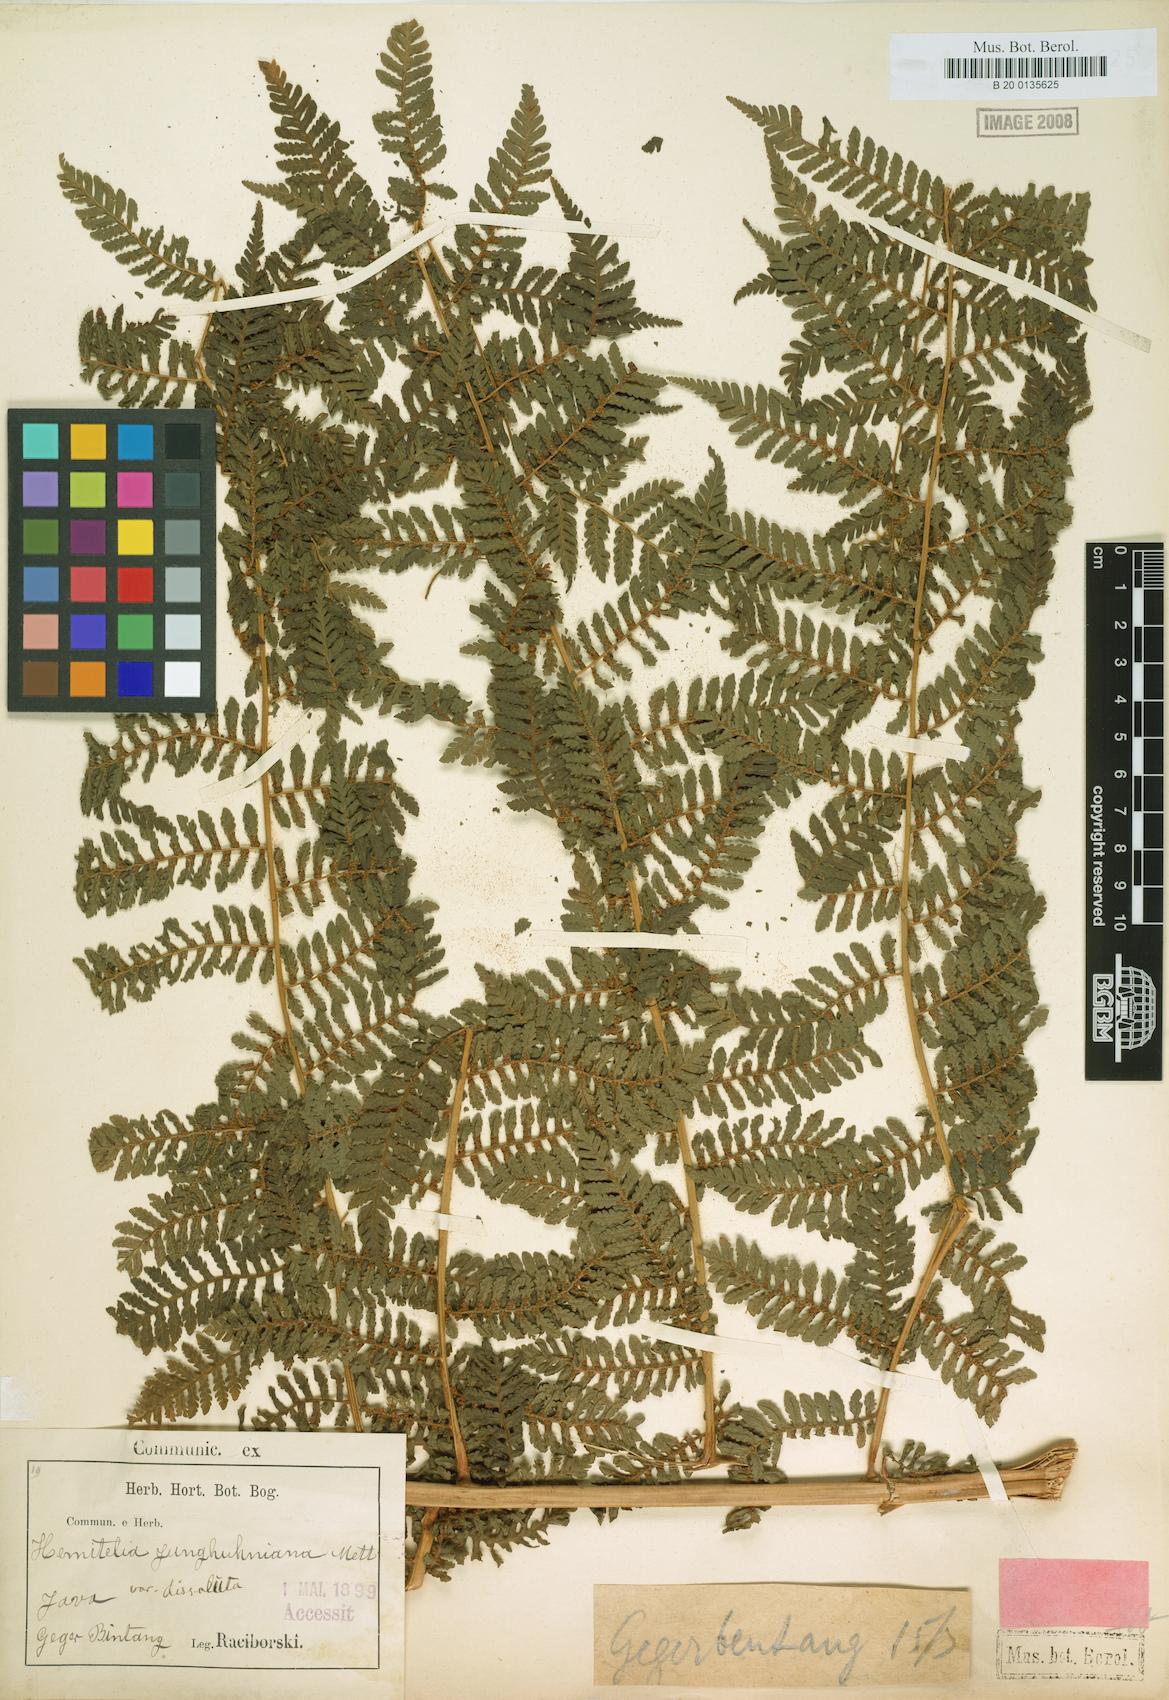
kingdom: Plantae
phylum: Tracheophyta
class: Polypodiopsida
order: Cyatheales
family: Cyatheaceae
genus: Alsophila
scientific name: Alsophila crenulata
